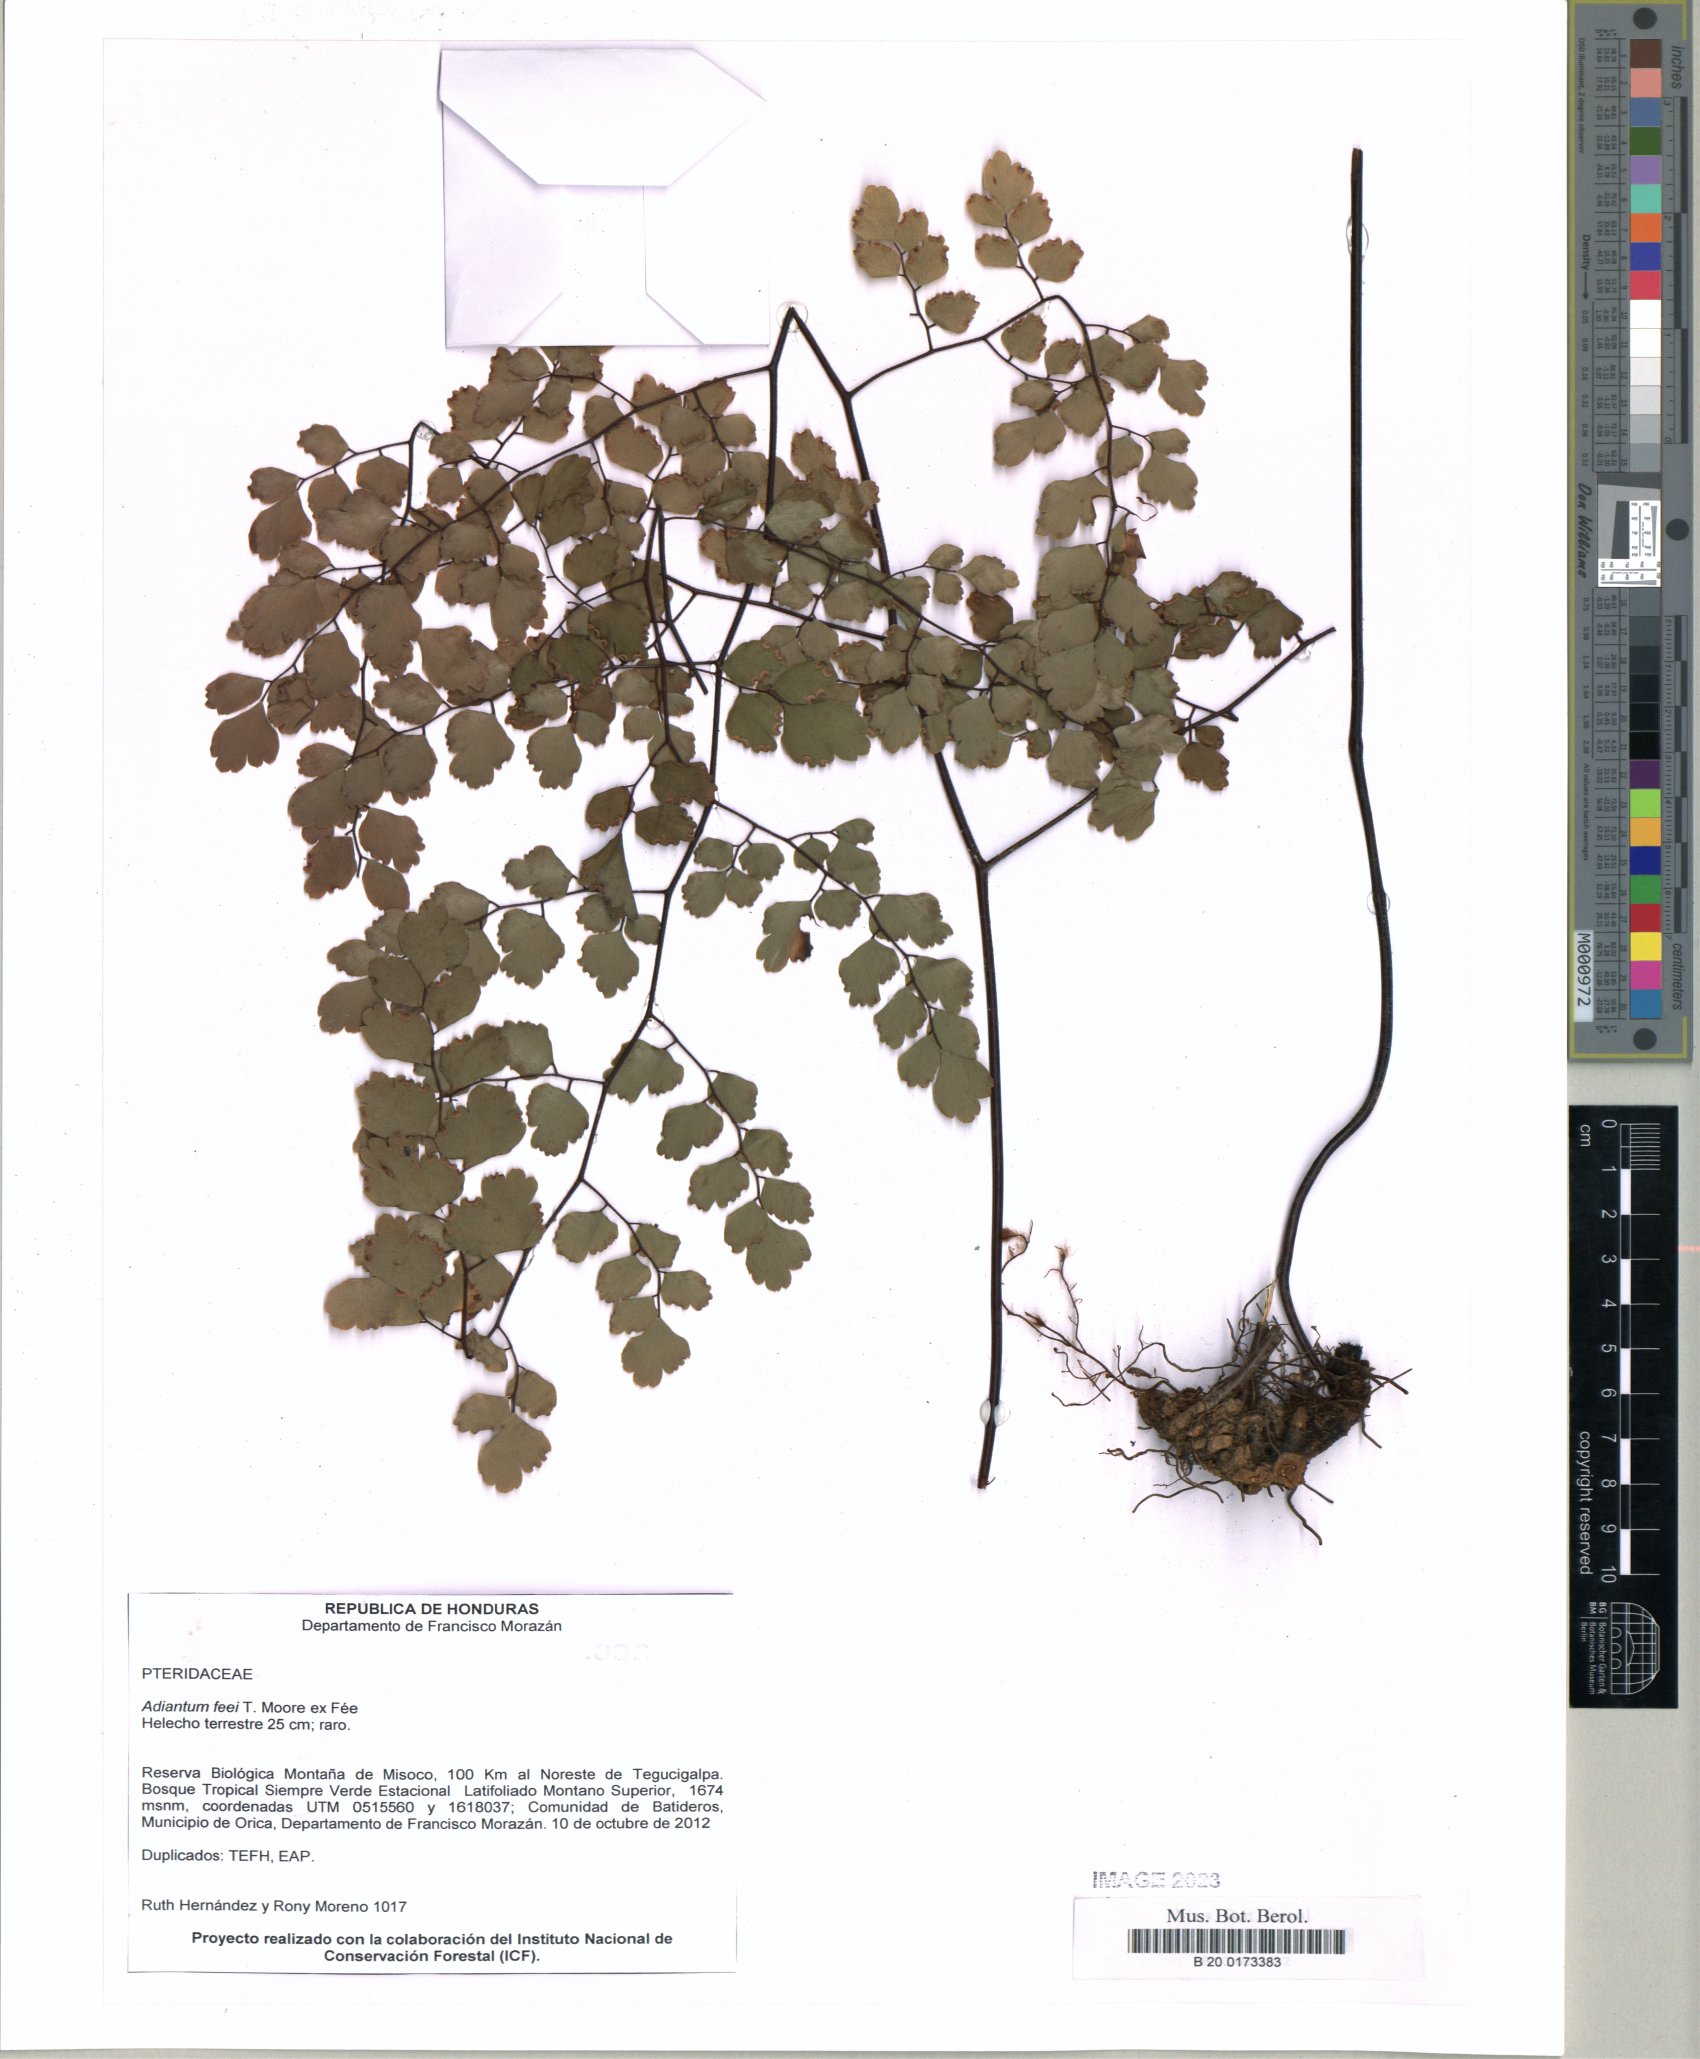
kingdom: Plantae
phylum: Tracheophyta
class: Polypodiopsida
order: Polypodiales
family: Pteridaceae
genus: Adiantum
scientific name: Adiantum feei
